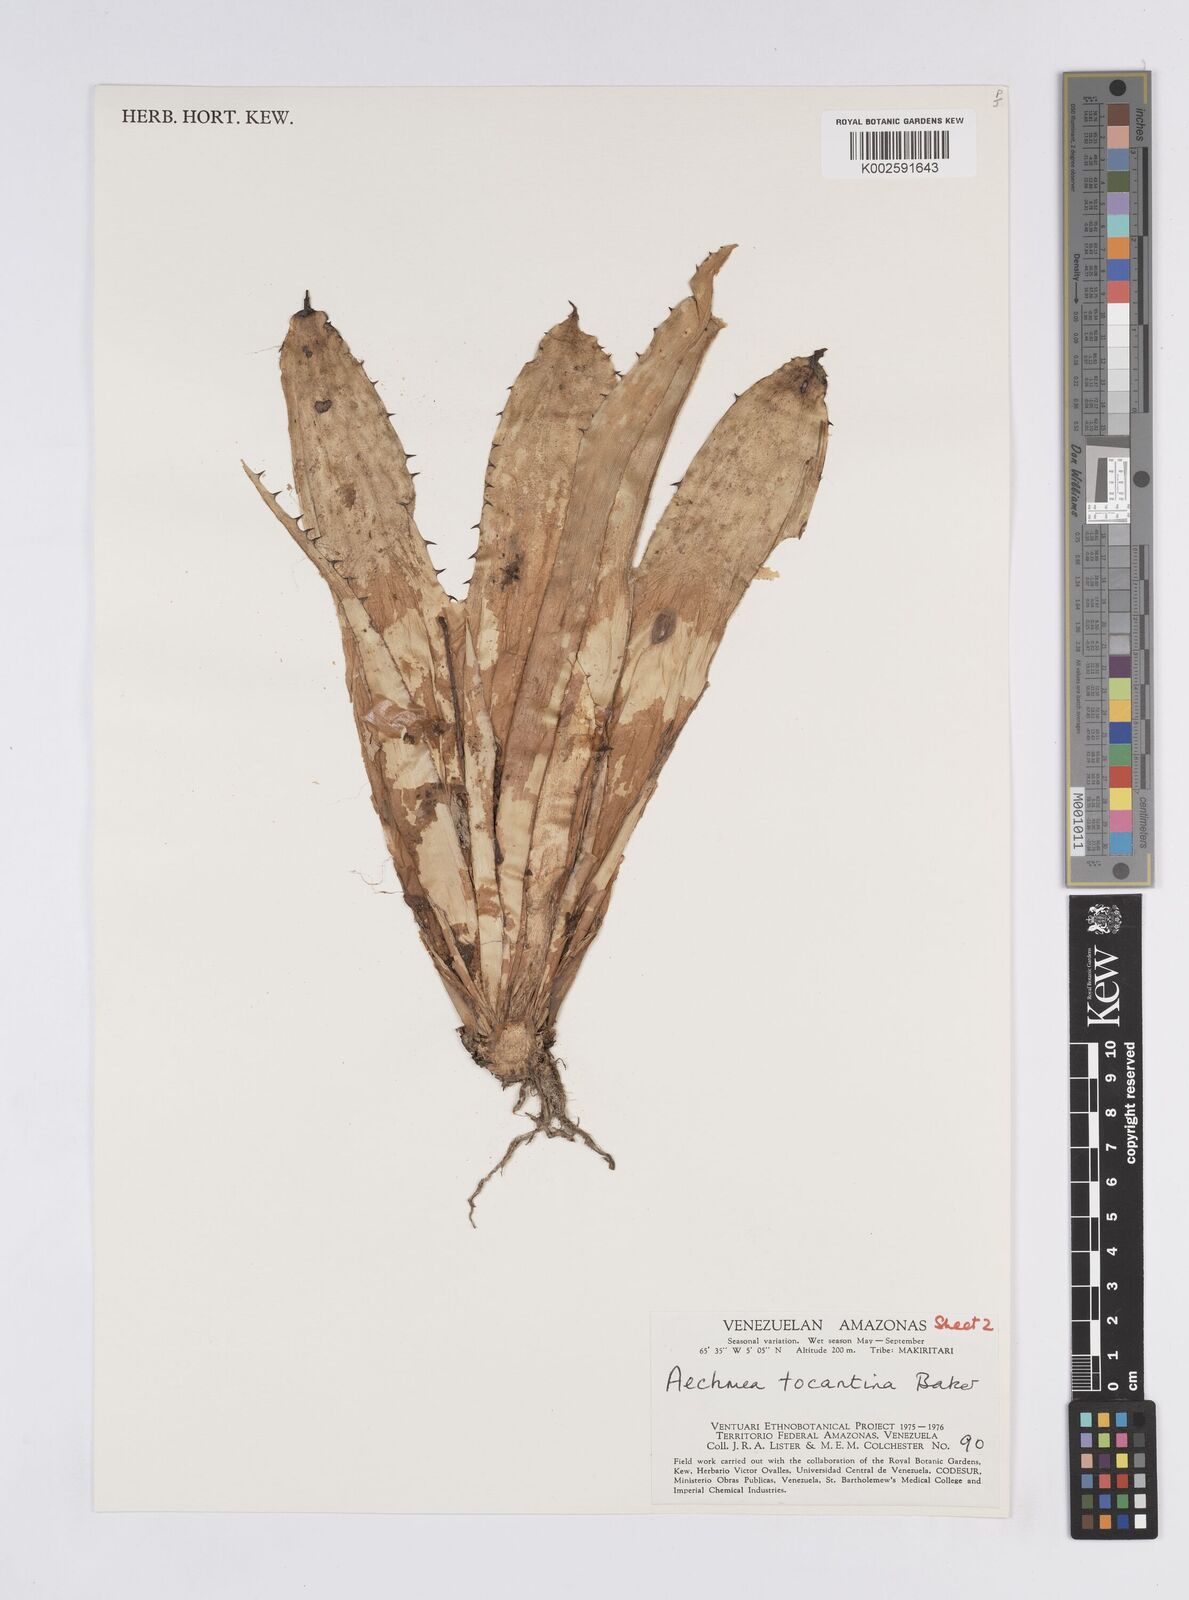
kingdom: Plantae
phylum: Tracheophyta
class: Liliopsida
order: Poales
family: Bromeliaceae
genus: Aechmea
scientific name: Aechmea tocantina
